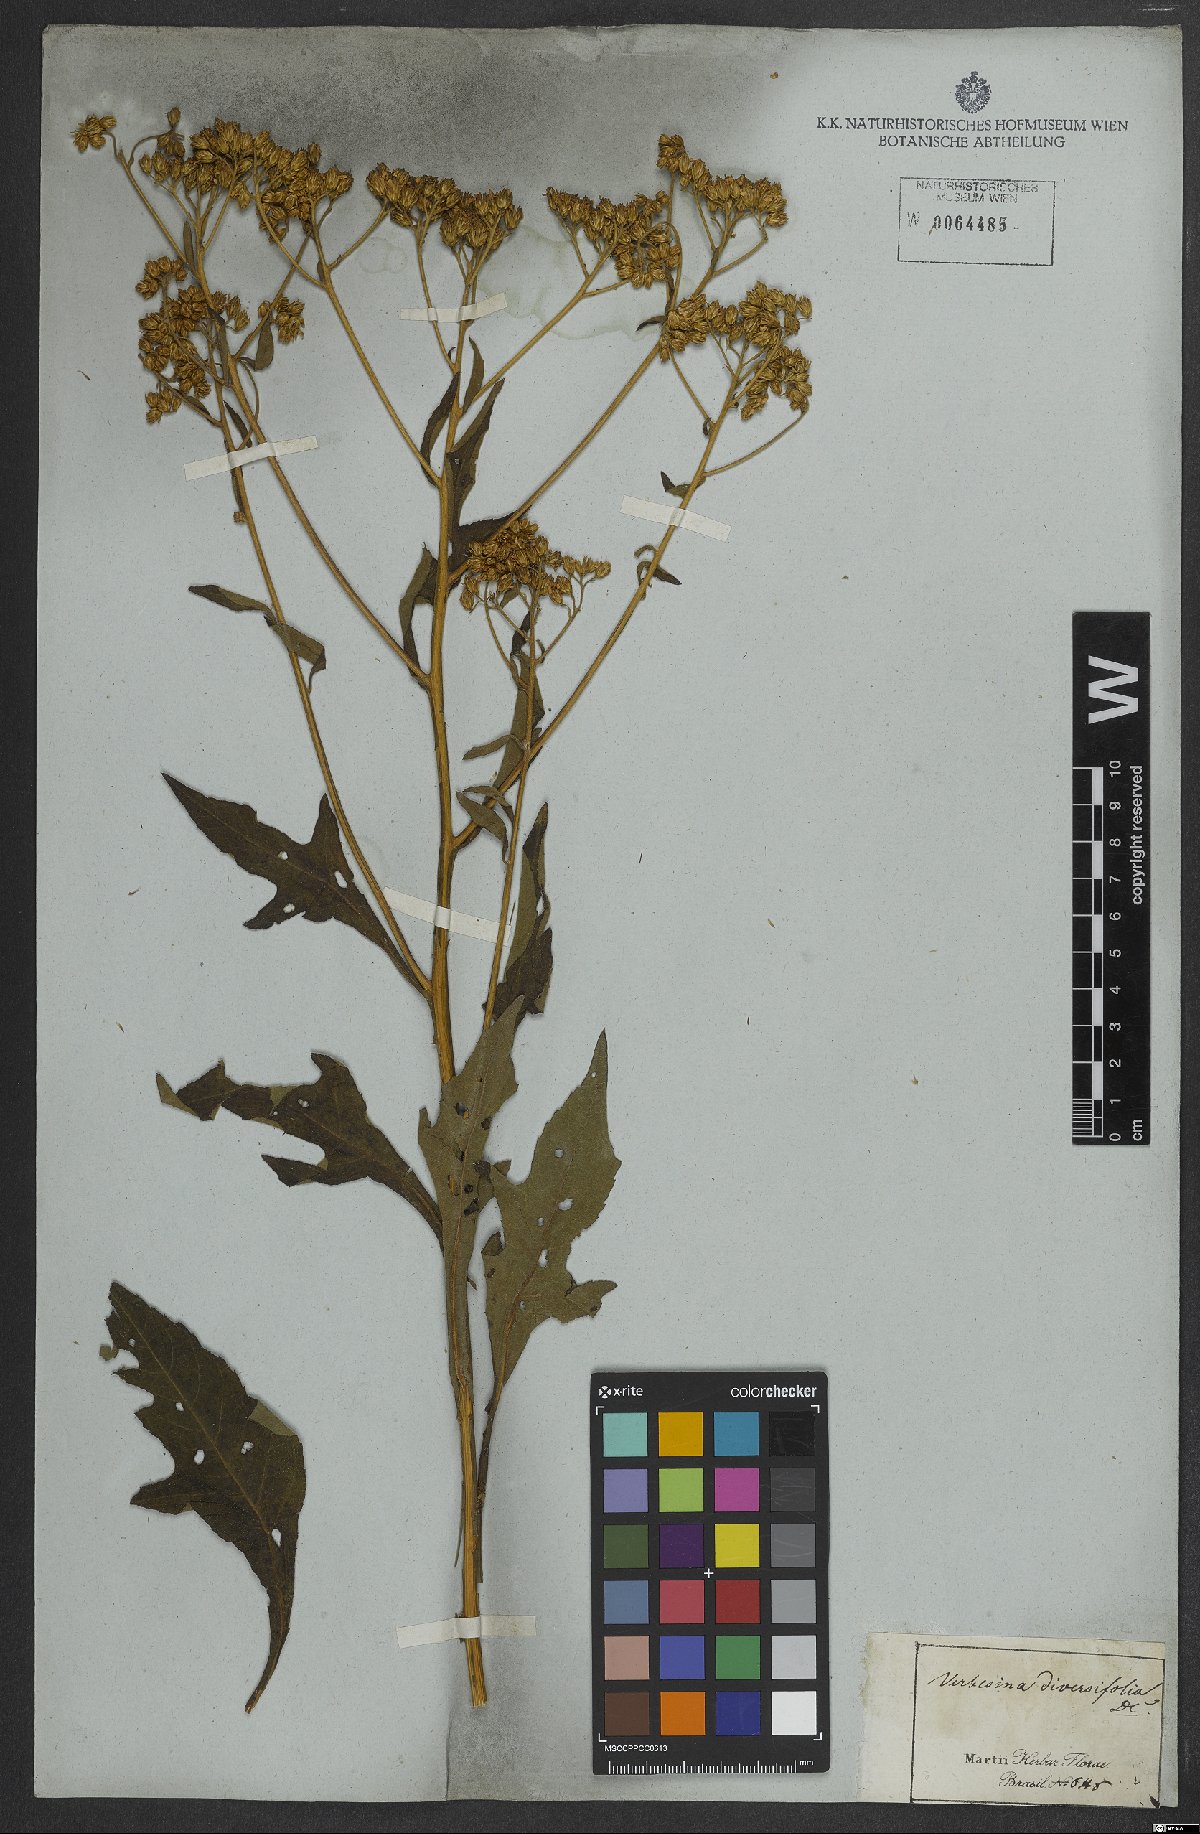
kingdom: Plantae
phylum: Tracheophyta
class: Magnoliopsida
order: Asterales
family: Asteraceae
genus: Vernonia
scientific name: Vernonia diversifolia
